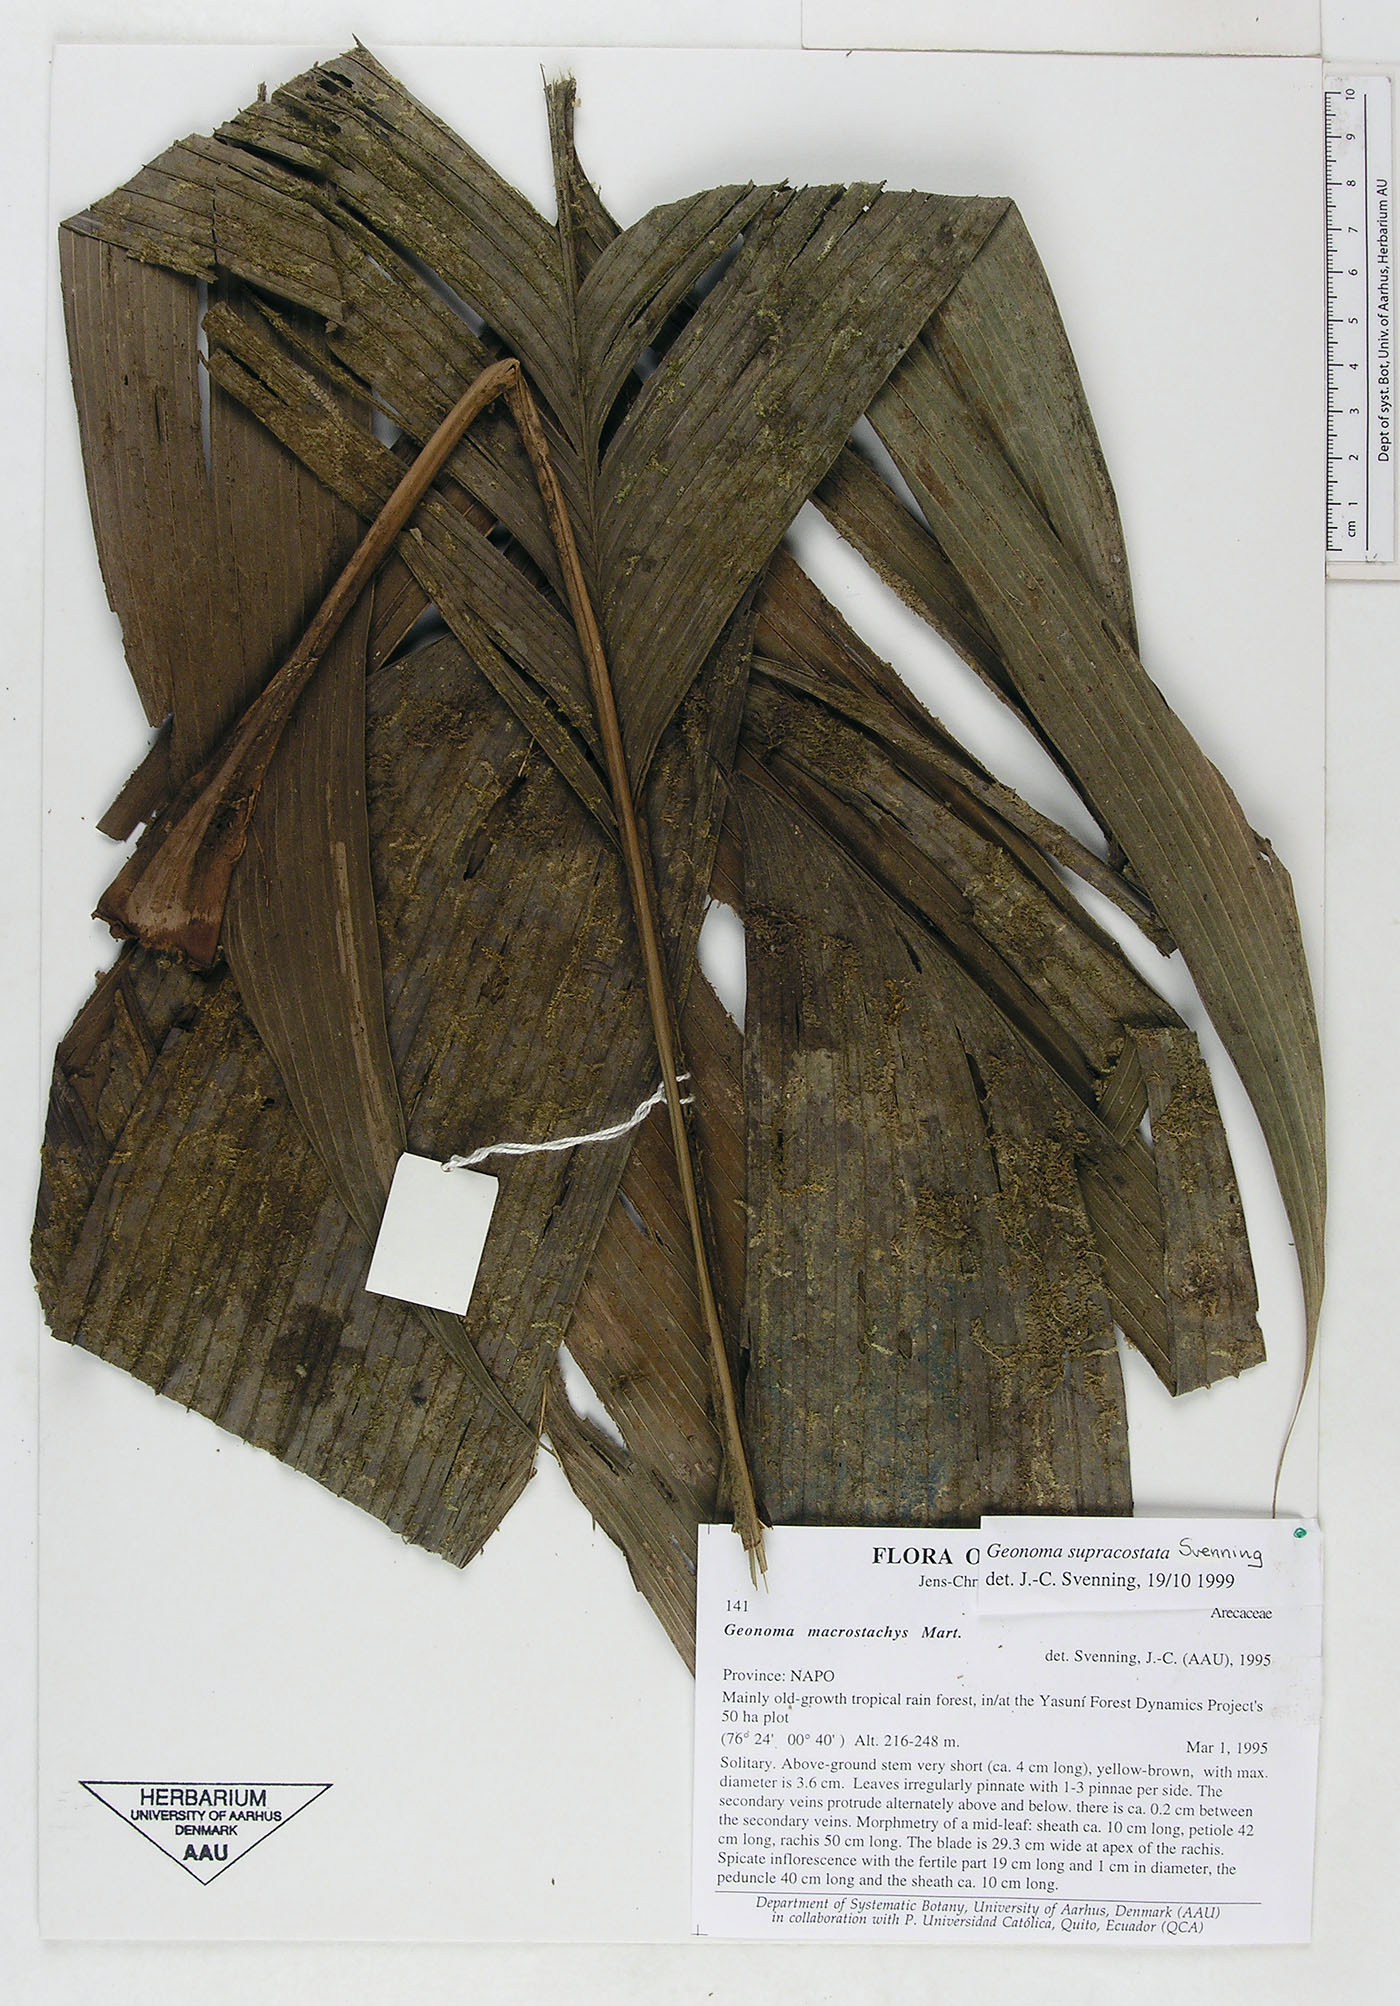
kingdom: Plantae
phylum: Tracheophyta
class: Liliopsida
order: Arecales
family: Arecaceae
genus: Geonoma
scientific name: Geonoma macrostachys
